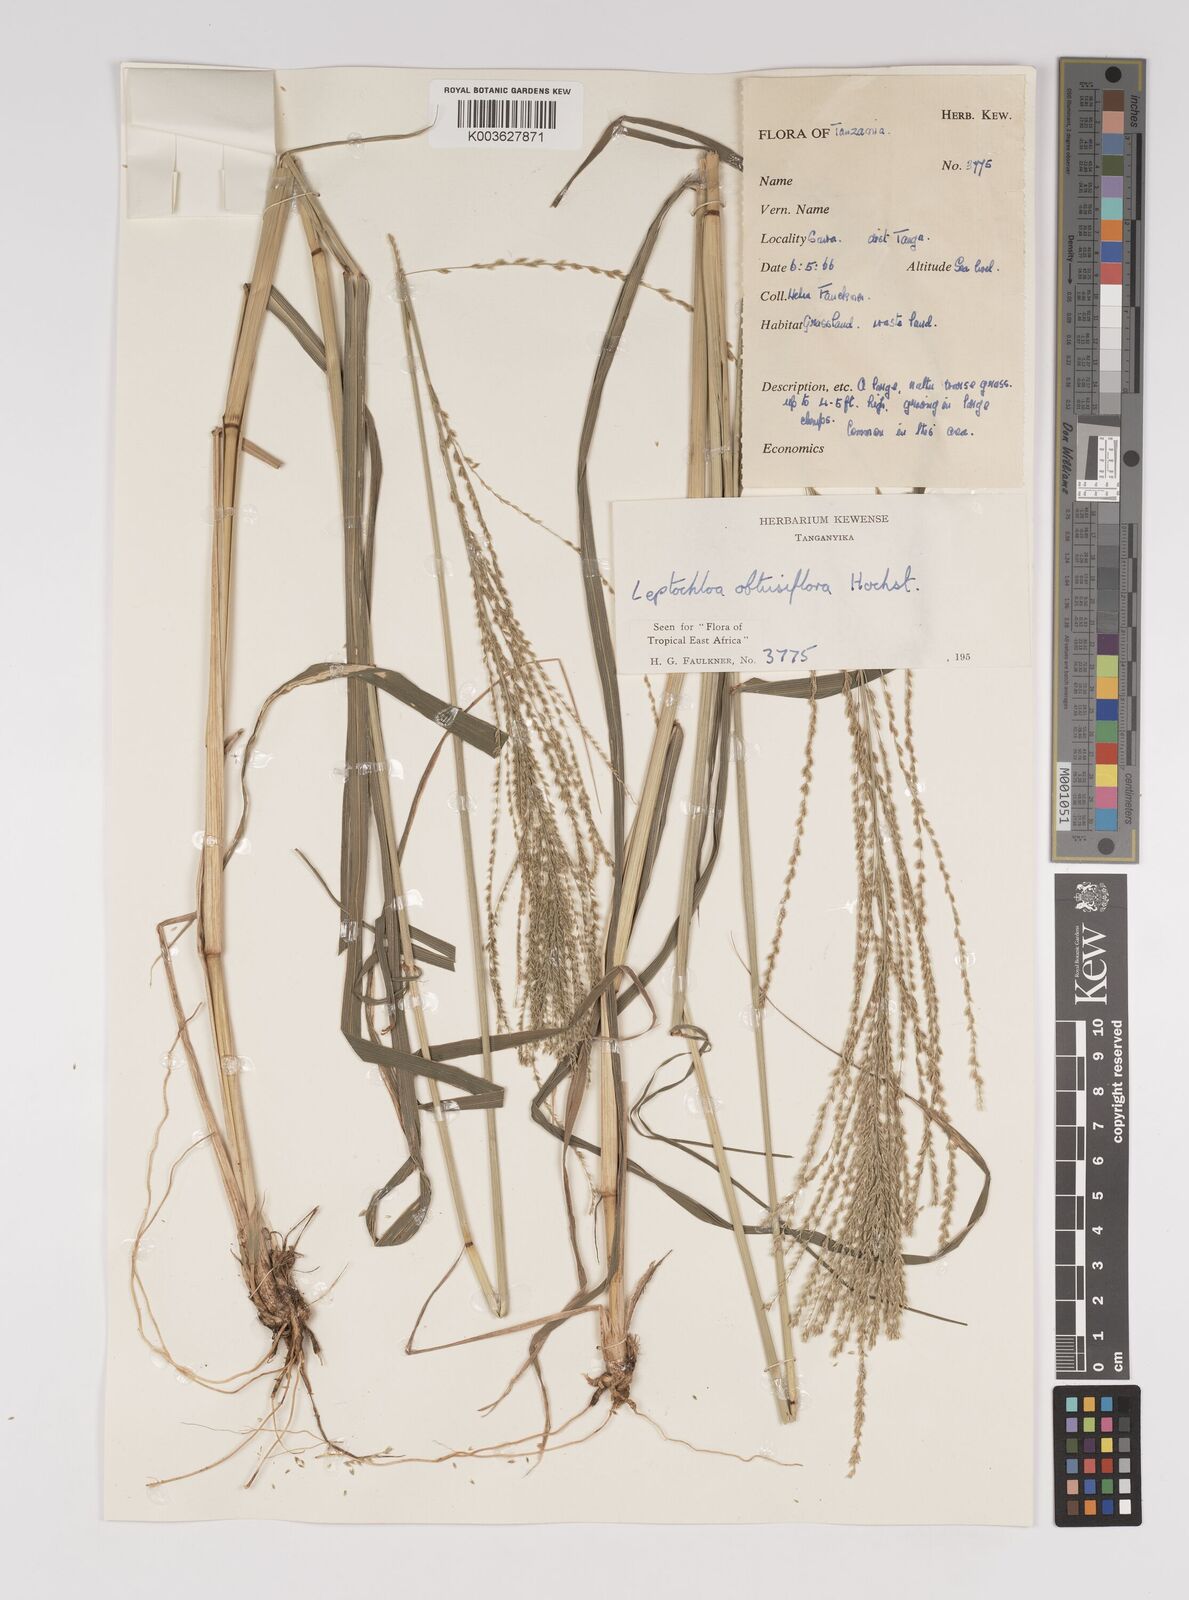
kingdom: Plantae
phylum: Tracheophyta
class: Liliopsida
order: Poales
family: Poaceae
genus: Disakisperma
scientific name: Disakisperma obtusiflorum
